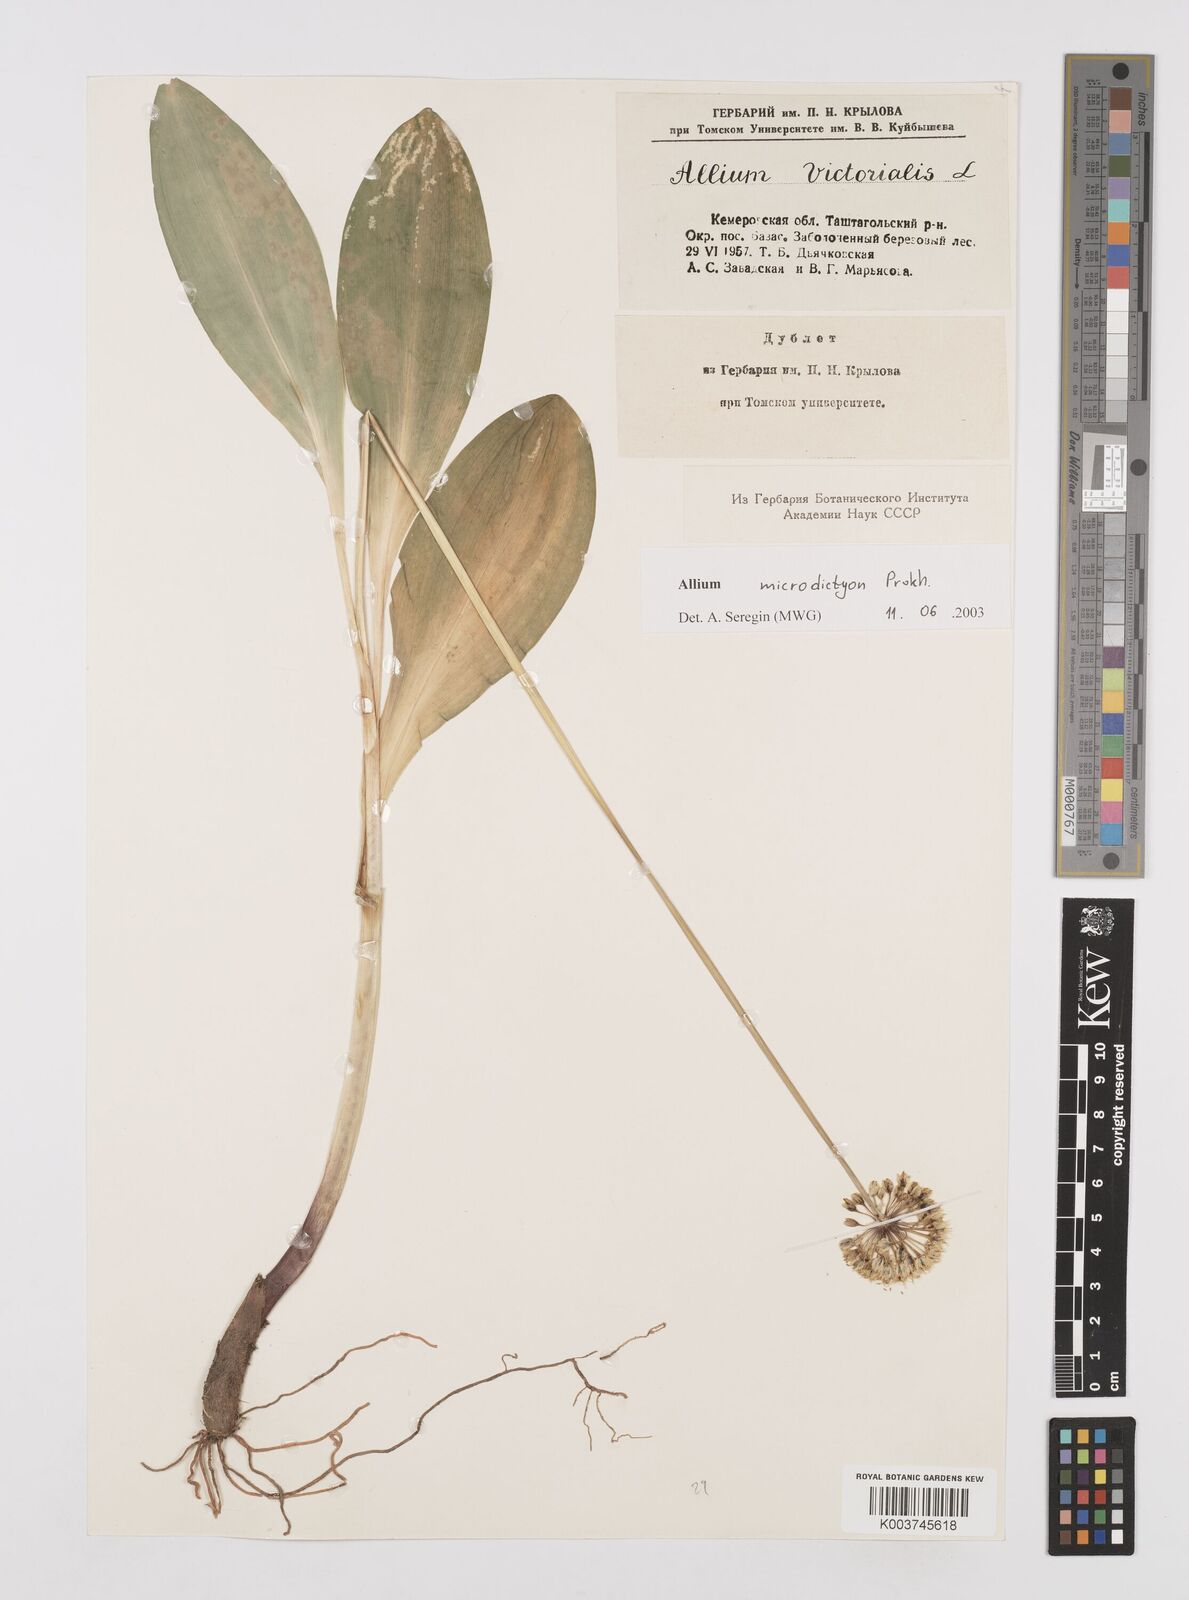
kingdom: Plantae
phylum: Tracheophyta
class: Liliopsida
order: Asparagales
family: Amaryllidaceae
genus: Allium
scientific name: Allium victorialis
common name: Alpine leek
